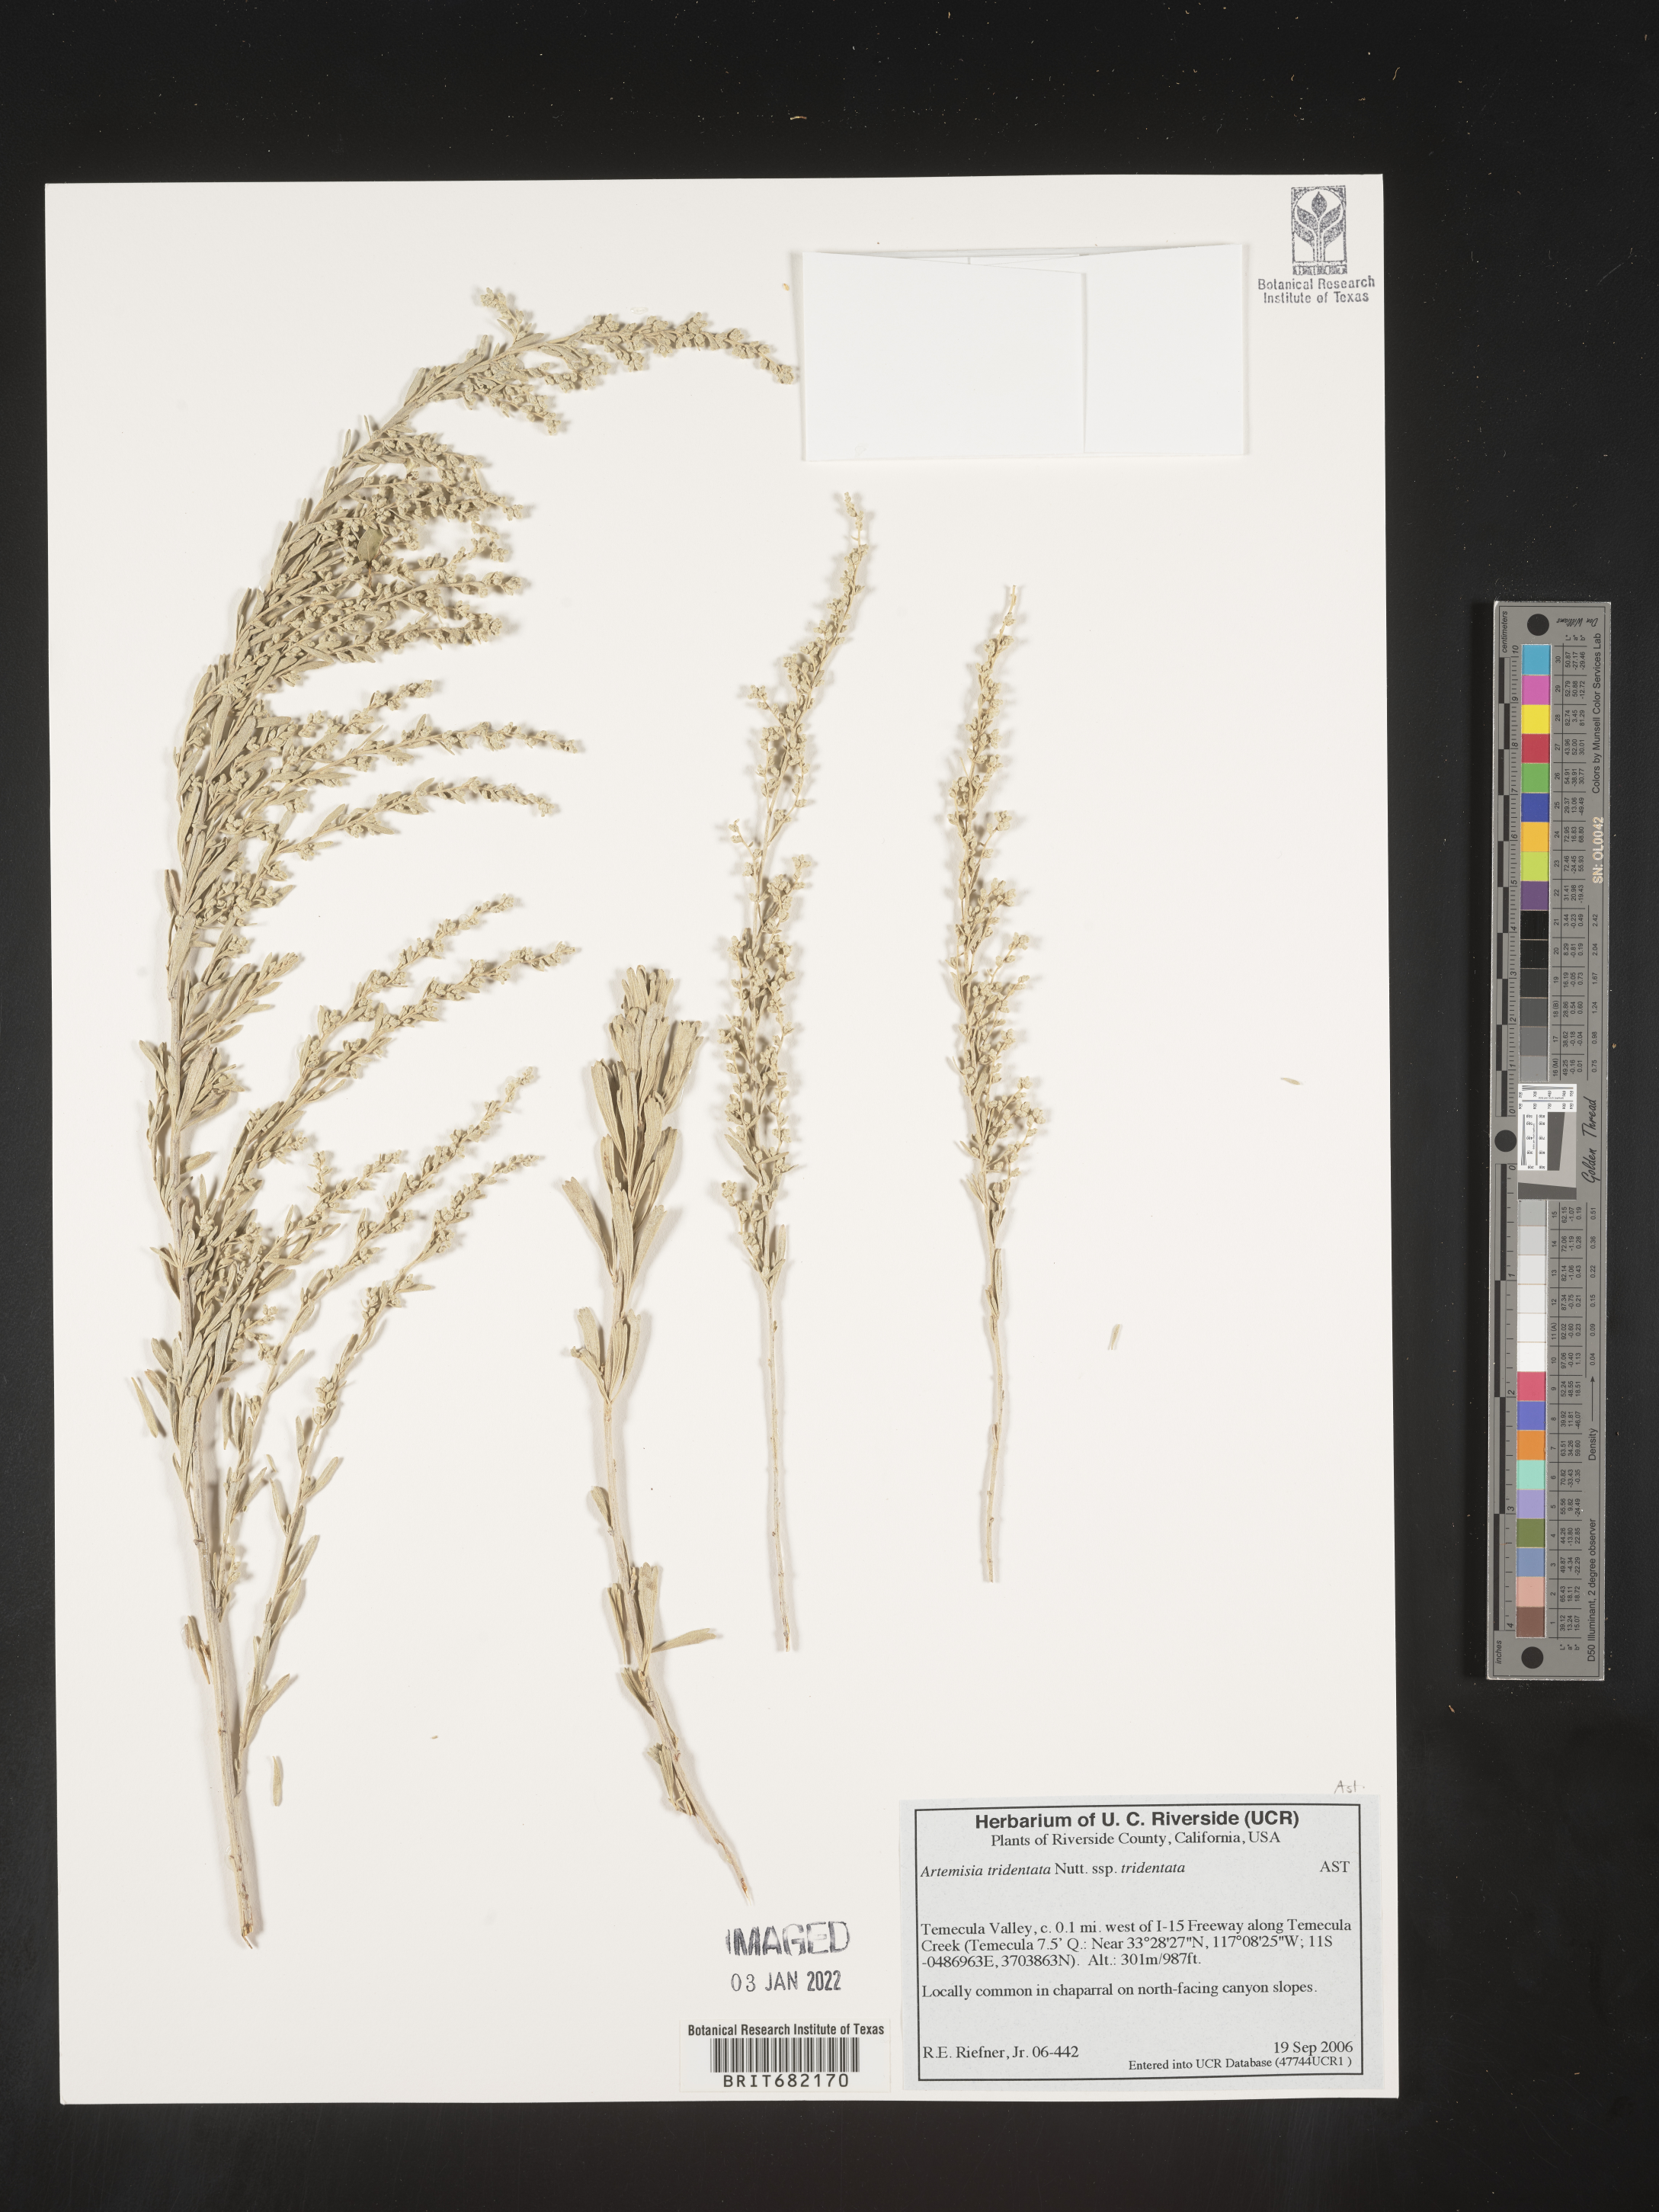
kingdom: Plantae
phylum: Tracheophyta
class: Magnoliopsida
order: Asterales
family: Asteraceae
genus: Artemisia
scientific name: Artemisia tridentata
